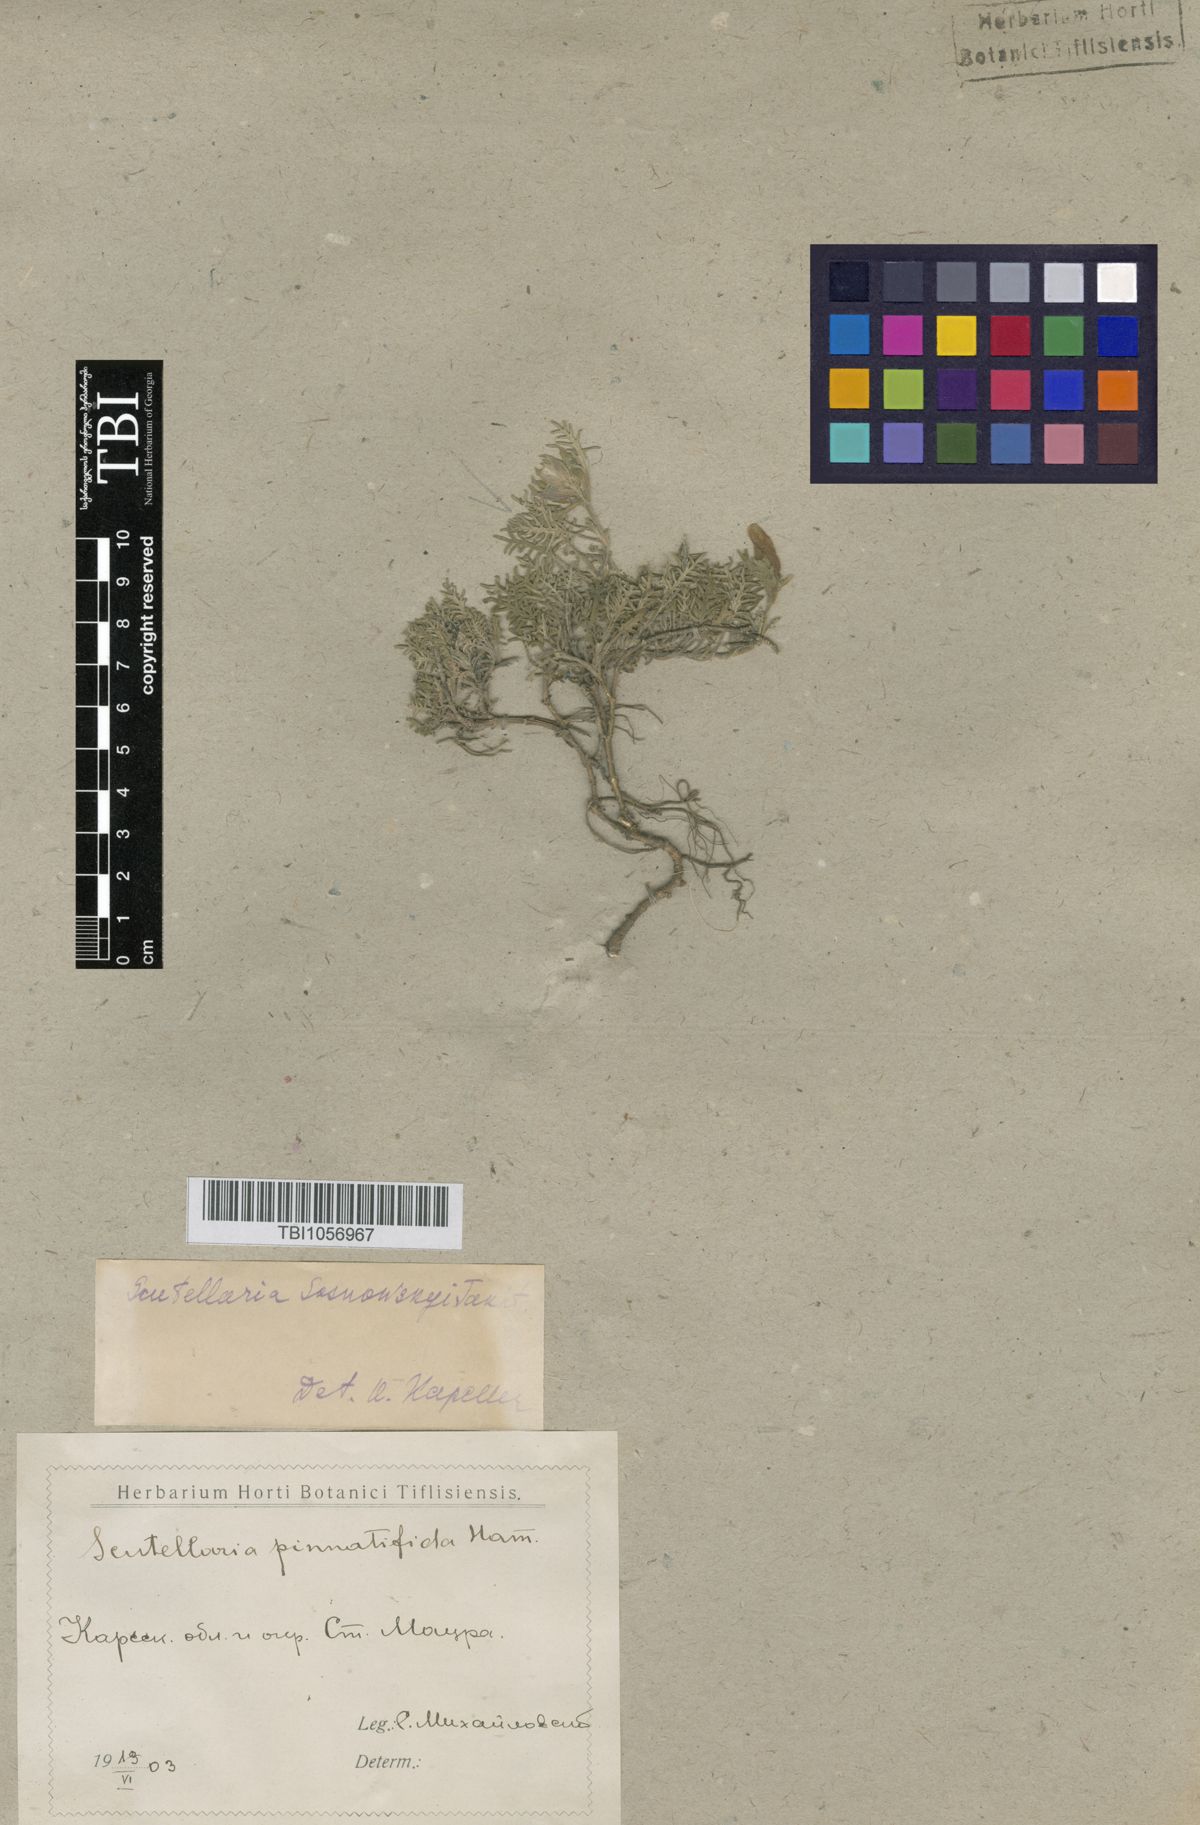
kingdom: Plantae
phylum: Tracheophyta
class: Magnoliopsida
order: Lamiales
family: Lamiaceae
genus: Scutellaria
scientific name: Scutellaria sosnowskyi
